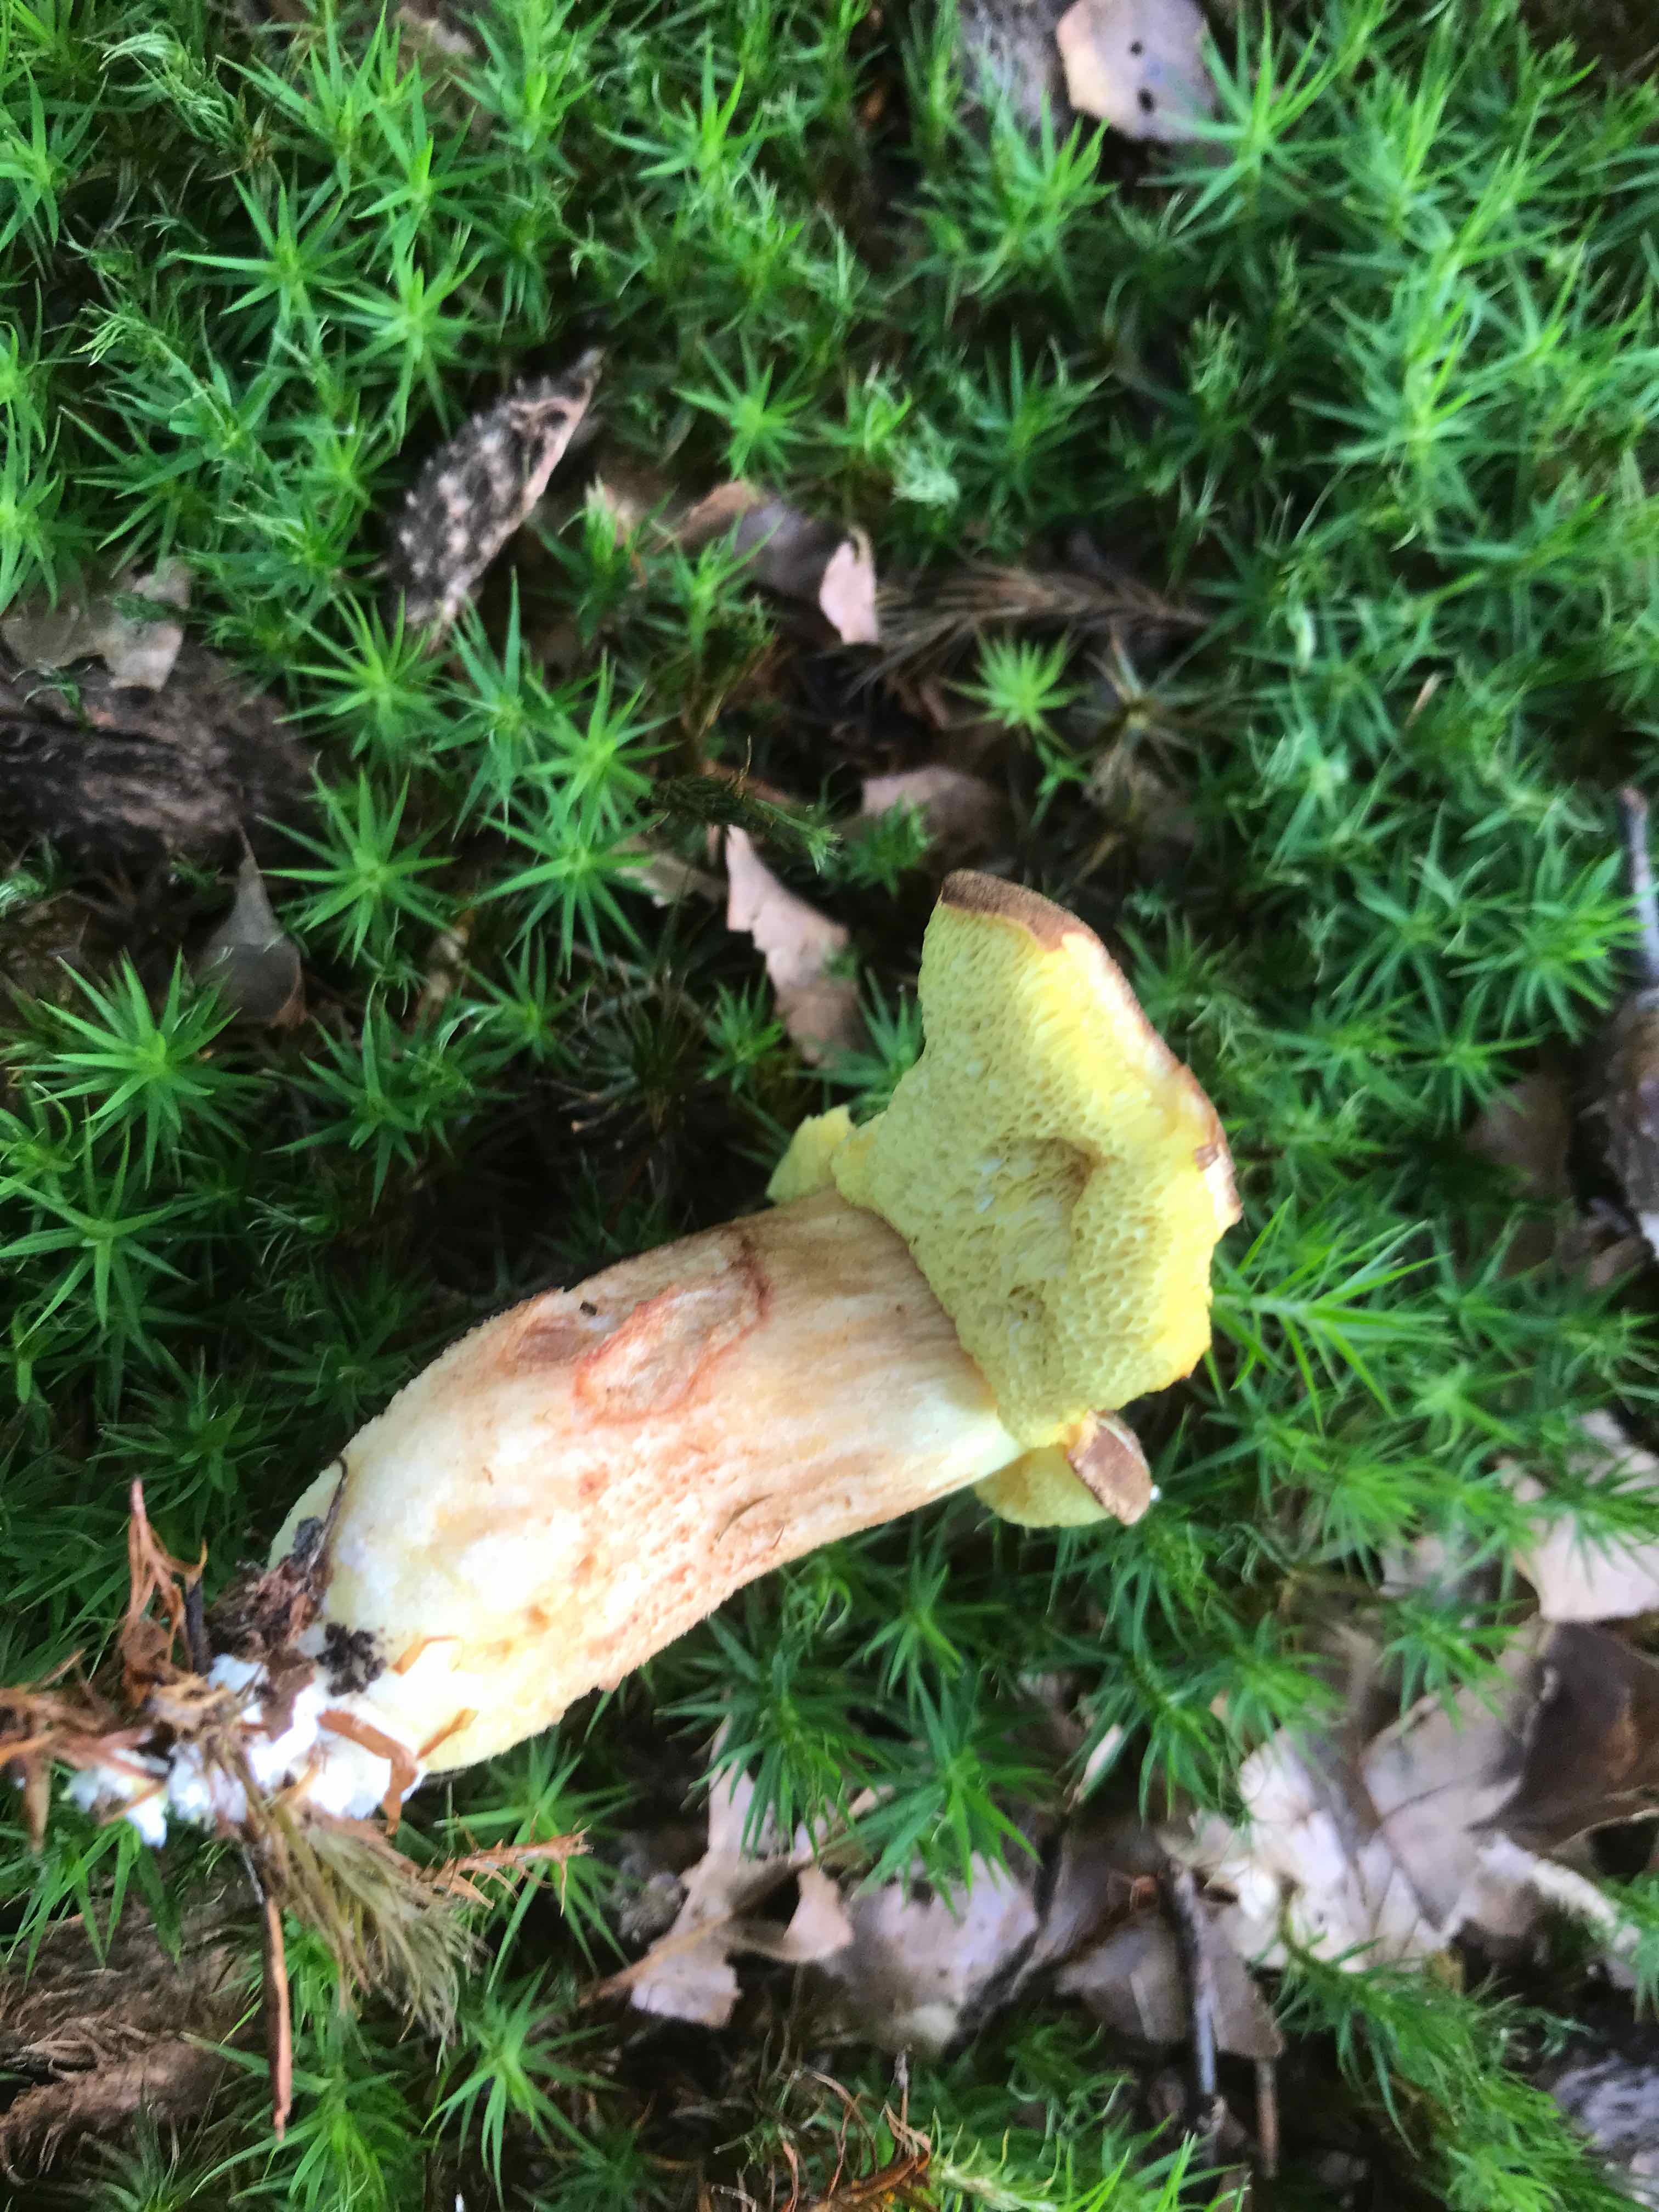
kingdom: Fungi
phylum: Basidiomycota
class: Agaricomycetes
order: Boletales
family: Boletaceae
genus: Xerocomus
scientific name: Xerocomus ferrugineus
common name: vaskeskinds-rørhat
